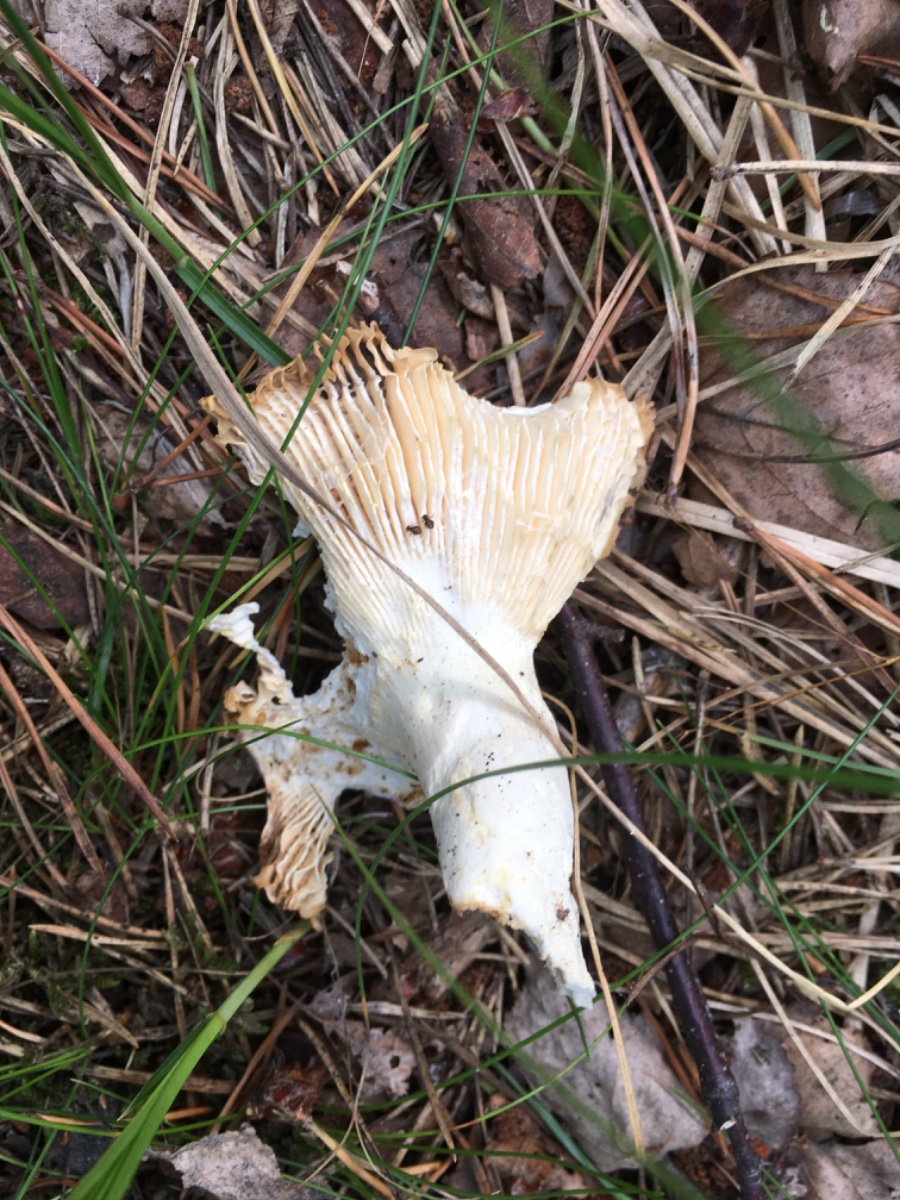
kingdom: Fungi
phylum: Basidiomycota
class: Agaricomycetes
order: Russulales
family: Russulaceae
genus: Russula
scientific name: Russula aeruginea
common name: græsgrøn skørhat
